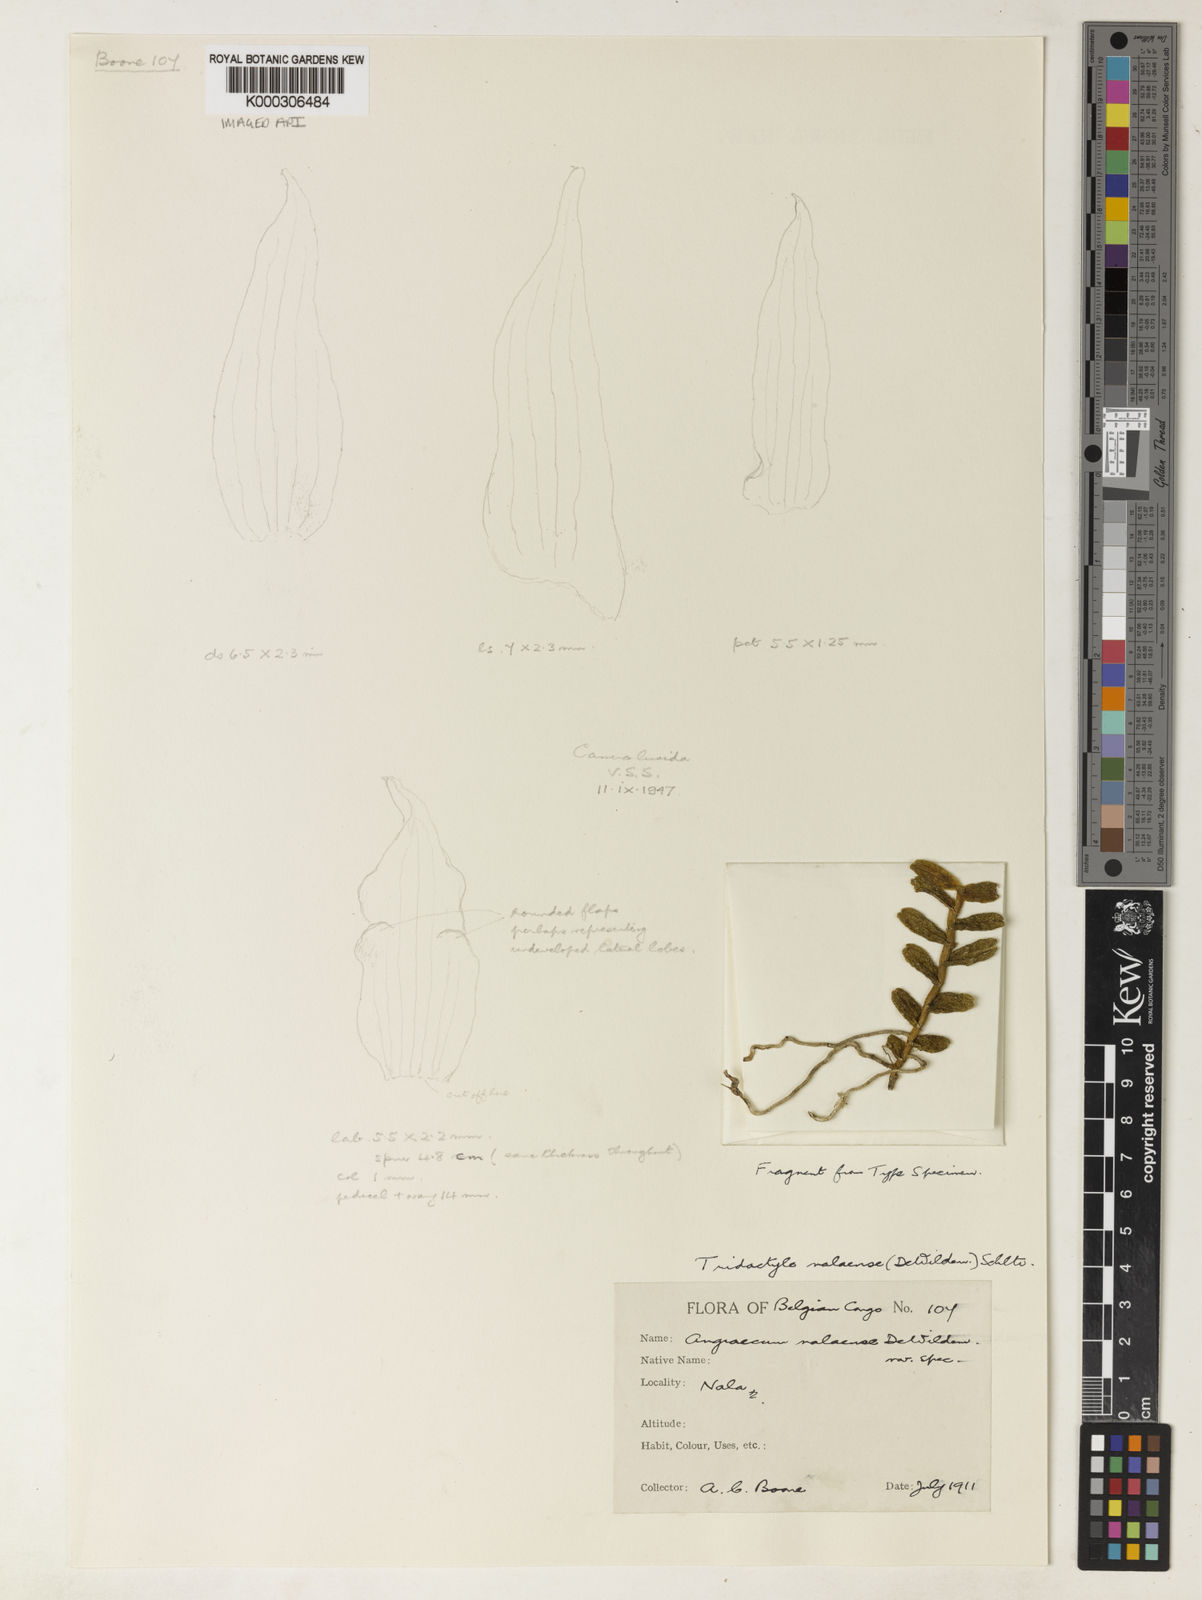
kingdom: Plantae
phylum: Tracheophyta
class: Liliopsida
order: Asparagales
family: Orchidaceae
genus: Tridactyle
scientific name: Tridactyle nalaensis
